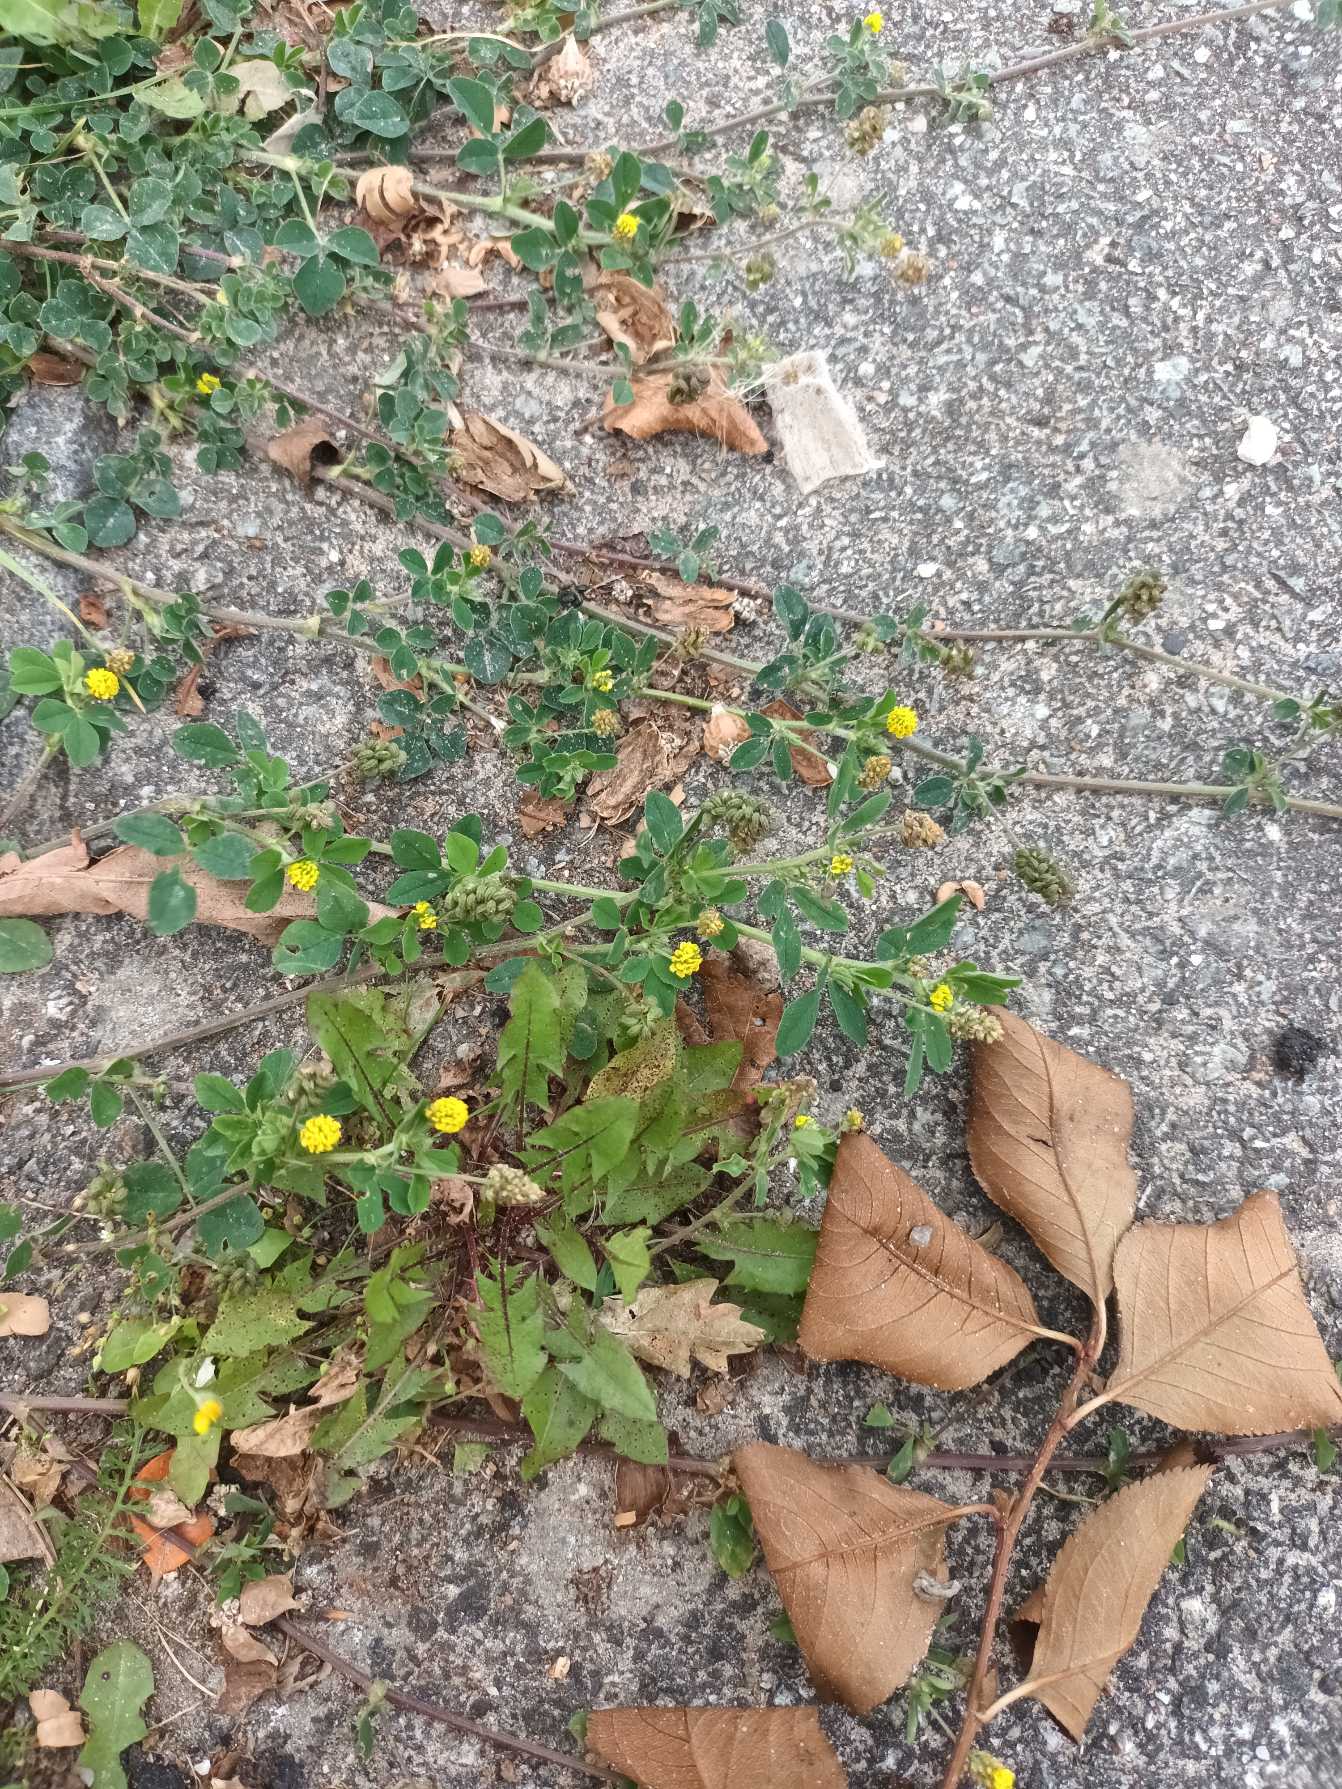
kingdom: Plantae
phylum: Tracheophyta
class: Magnoliopsida
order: Fabales
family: Fabaceae
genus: Medicago
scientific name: Medicago lupulina
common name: Humle-sneglebælg
